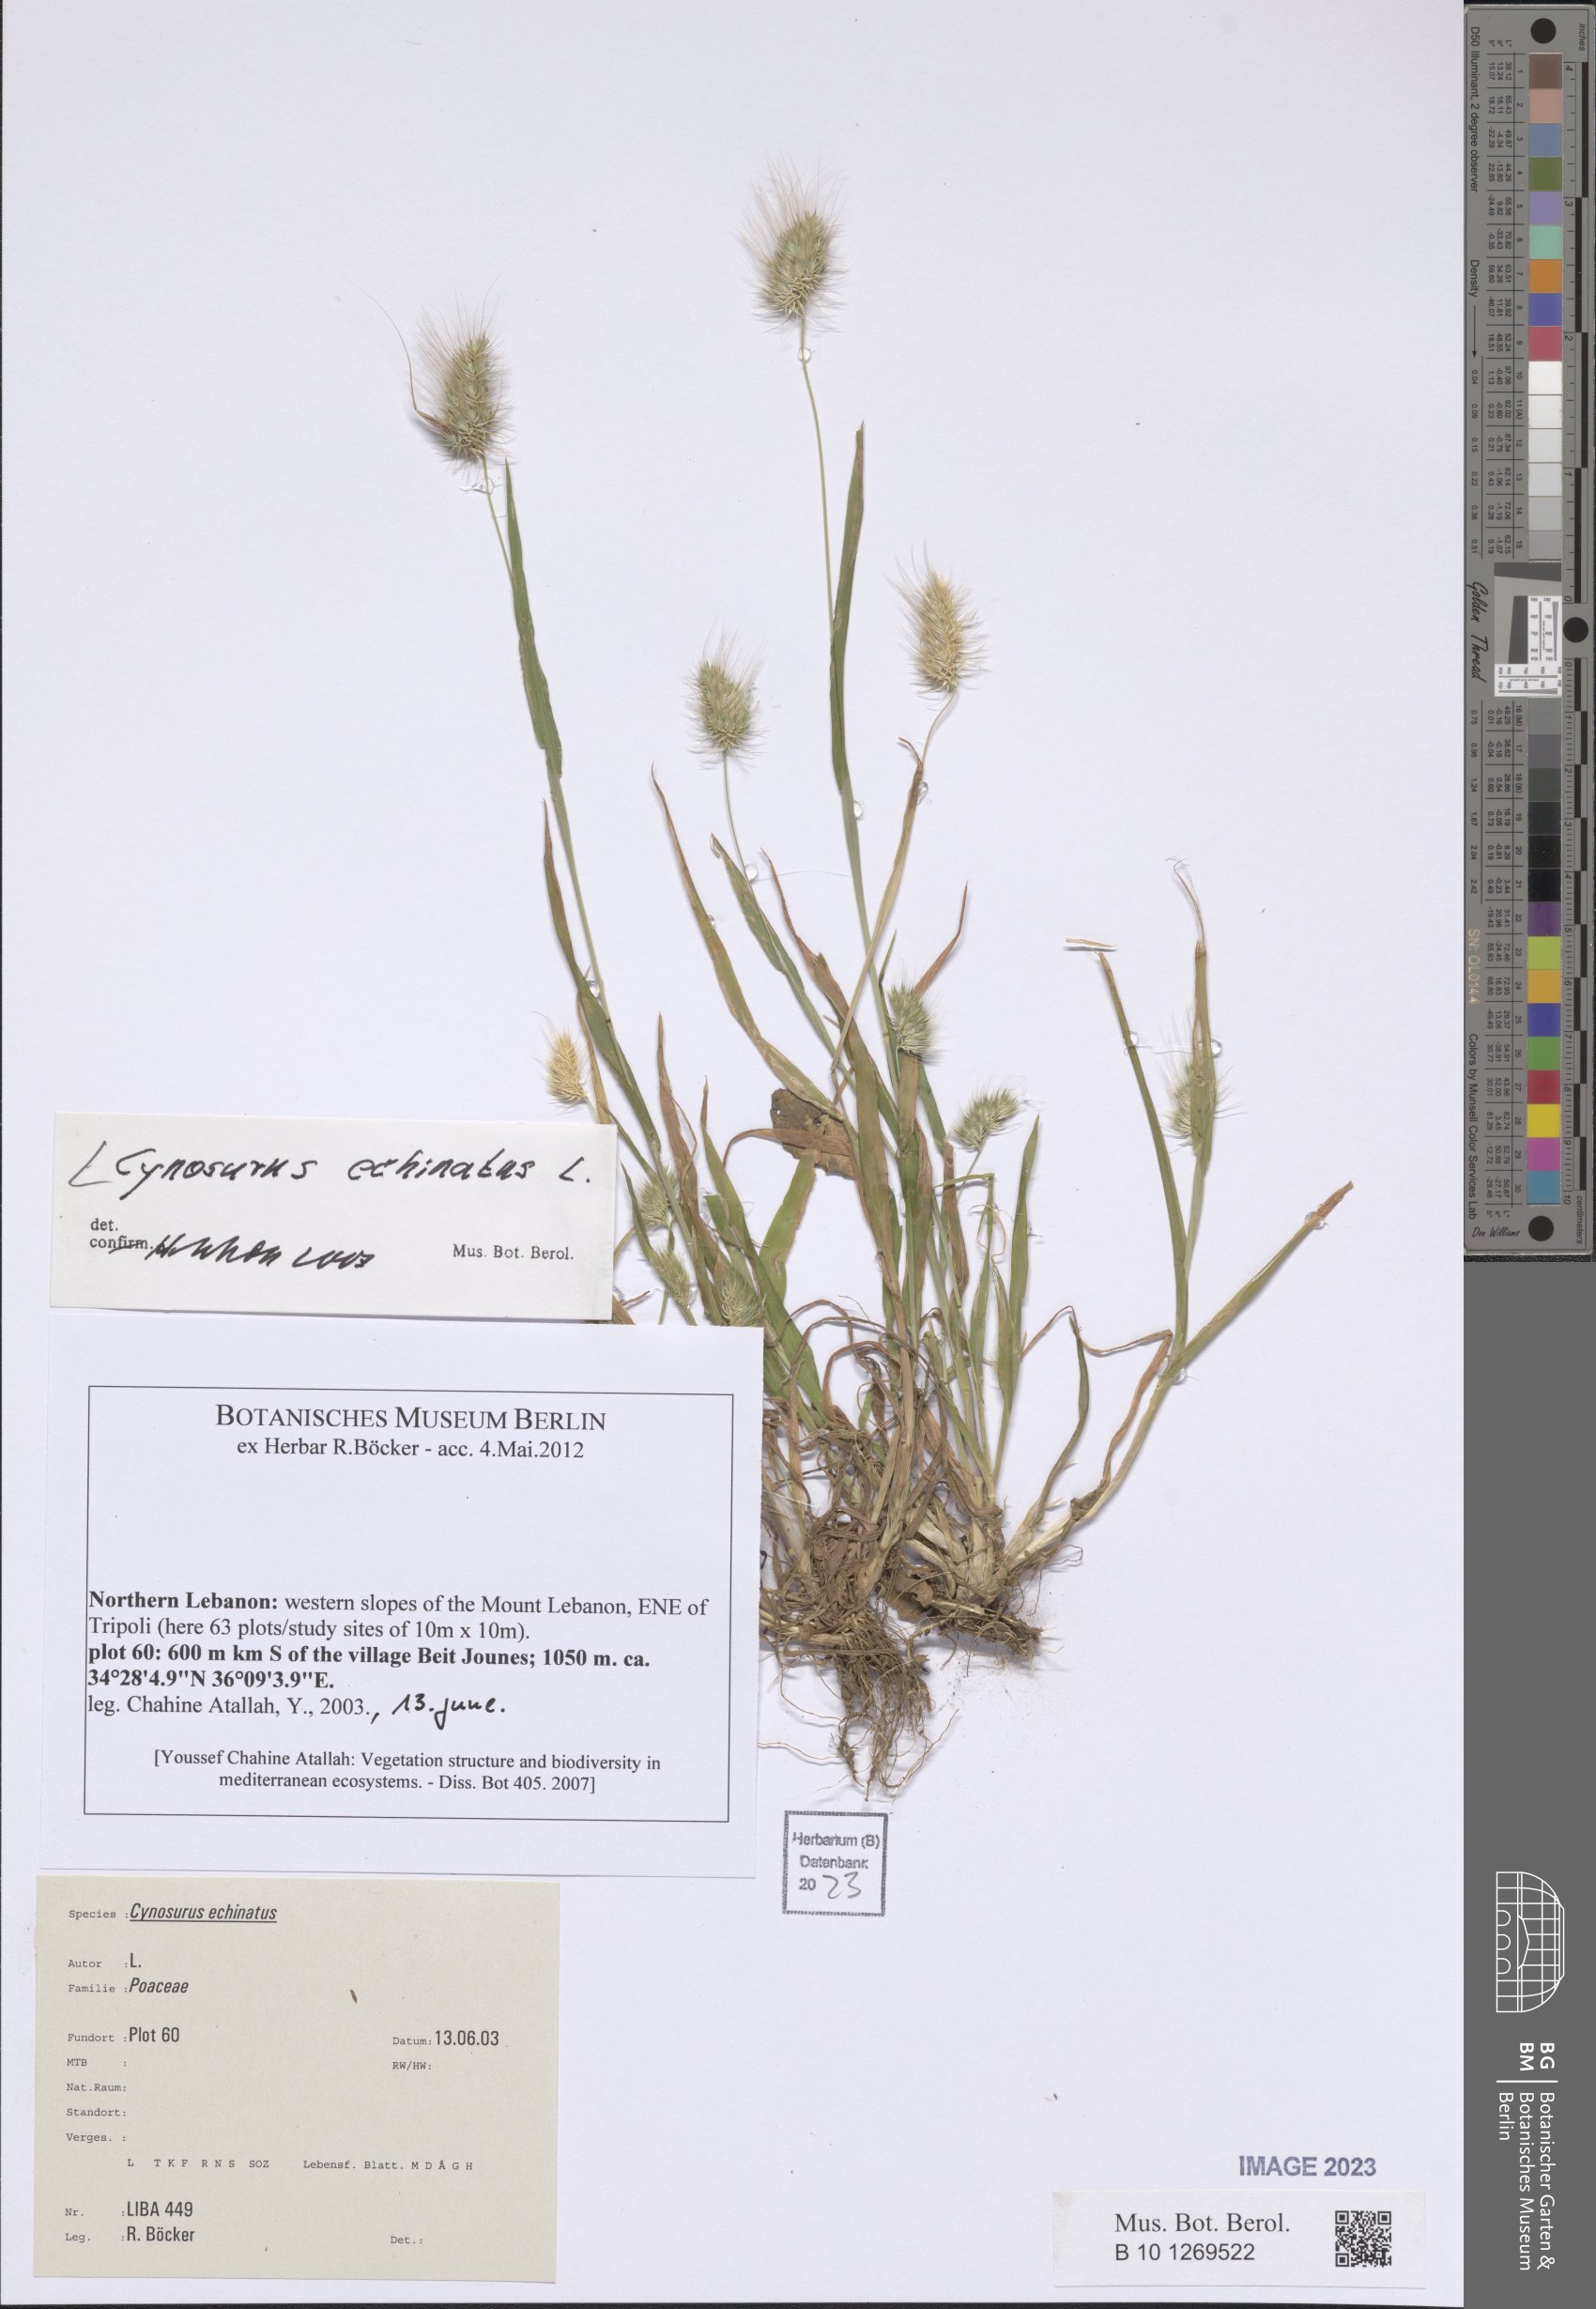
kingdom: Plantae
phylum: Tracheophyta
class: Liliopsida
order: Poales
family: Poaceae
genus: Cynosurus
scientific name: Cynosurus echinatus
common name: Rough dog's-tail
